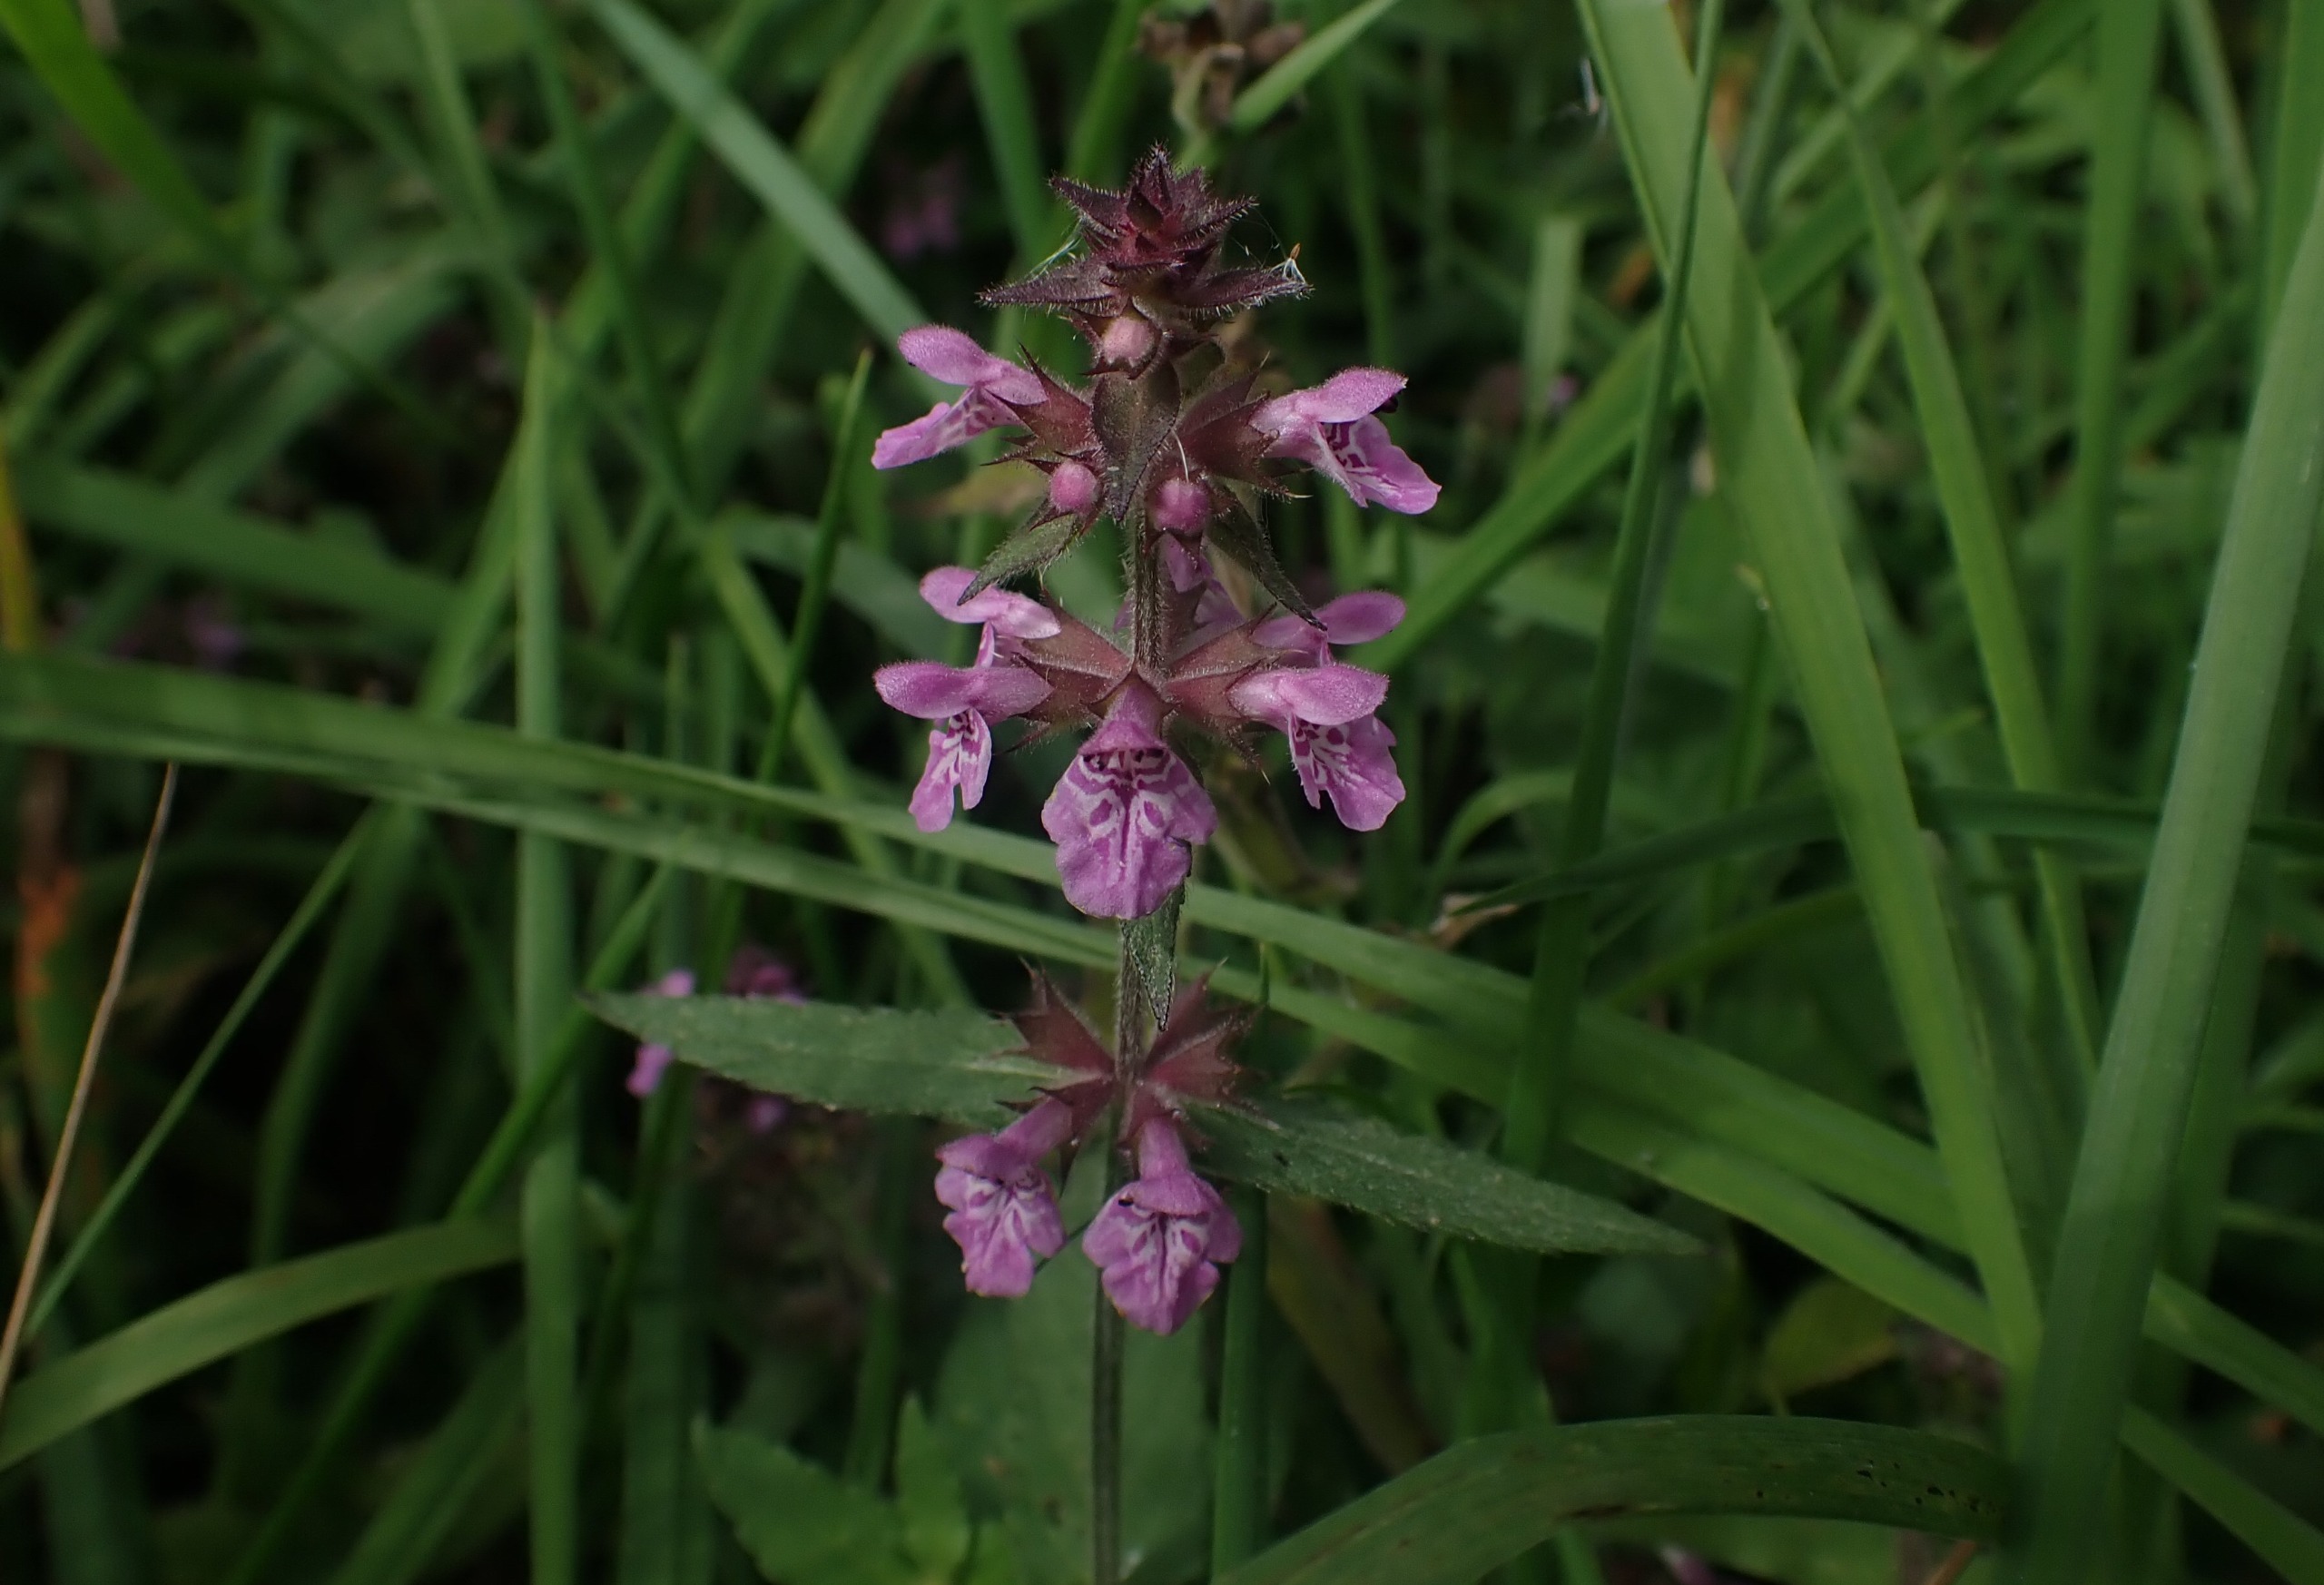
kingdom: Plantae
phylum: Tracheophyta
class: Magnoliopsida
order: Lamiales
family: Lamiaceae
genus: Stachys
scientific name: Stachys palustris
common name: Kær-galtetand
